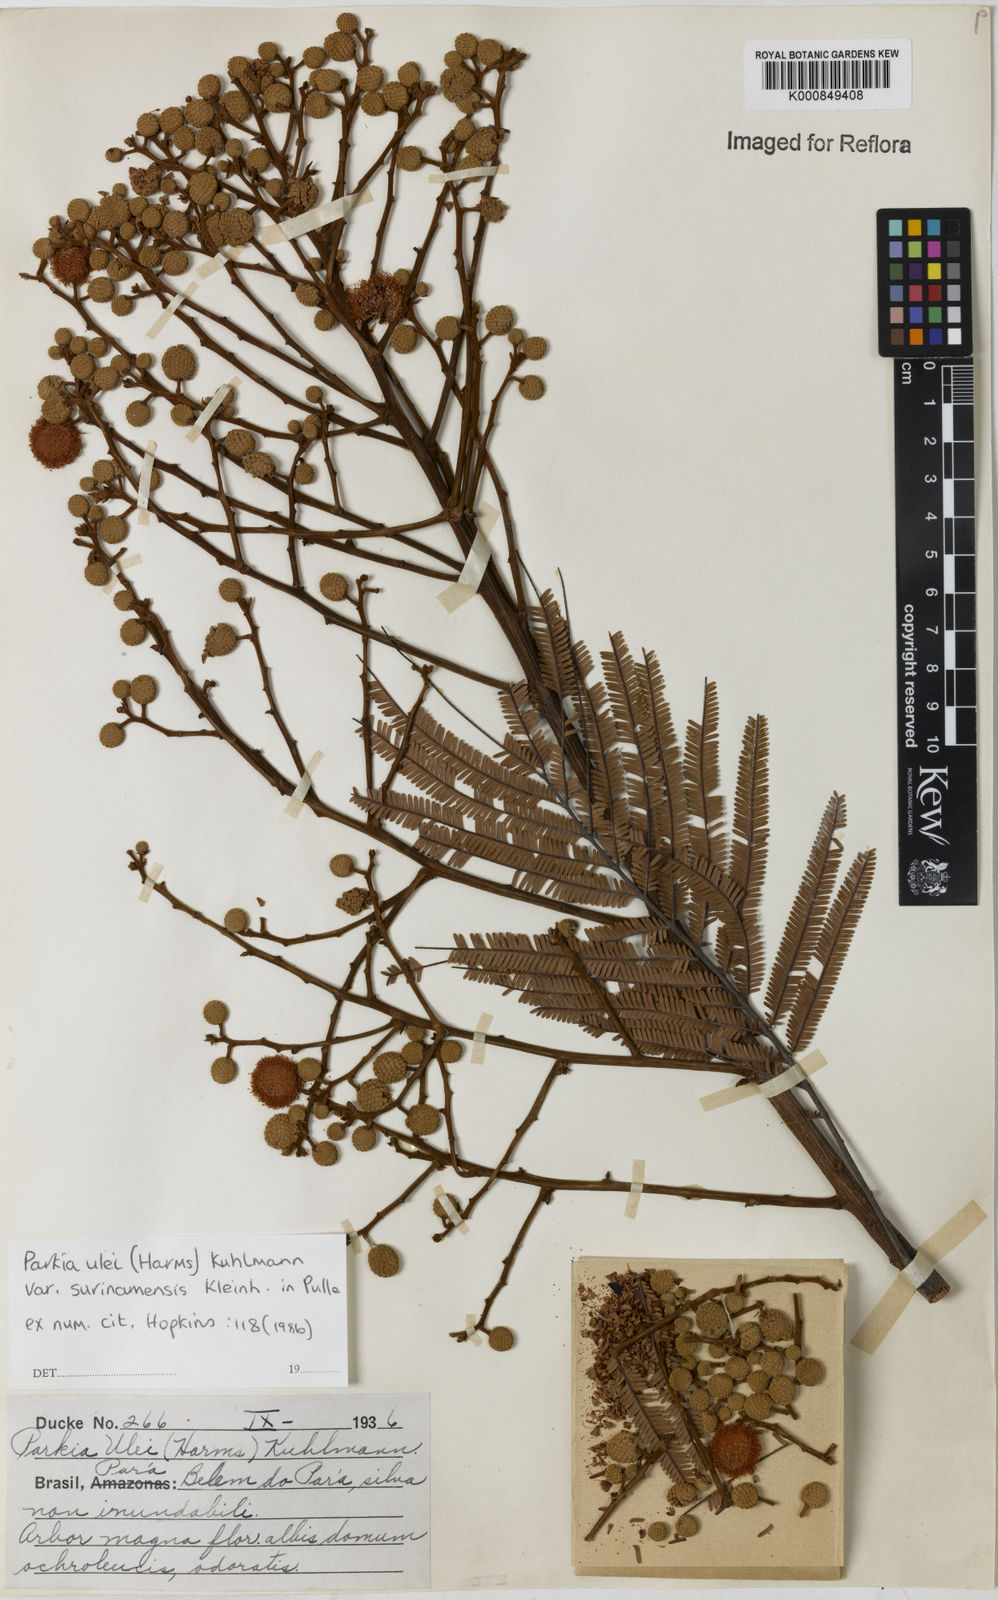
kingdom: Plantae
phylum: Tracheophyta
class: Magnoliopsida
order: Fabales
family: Fabaceae
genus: Parkia
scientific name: Parkia ulei
